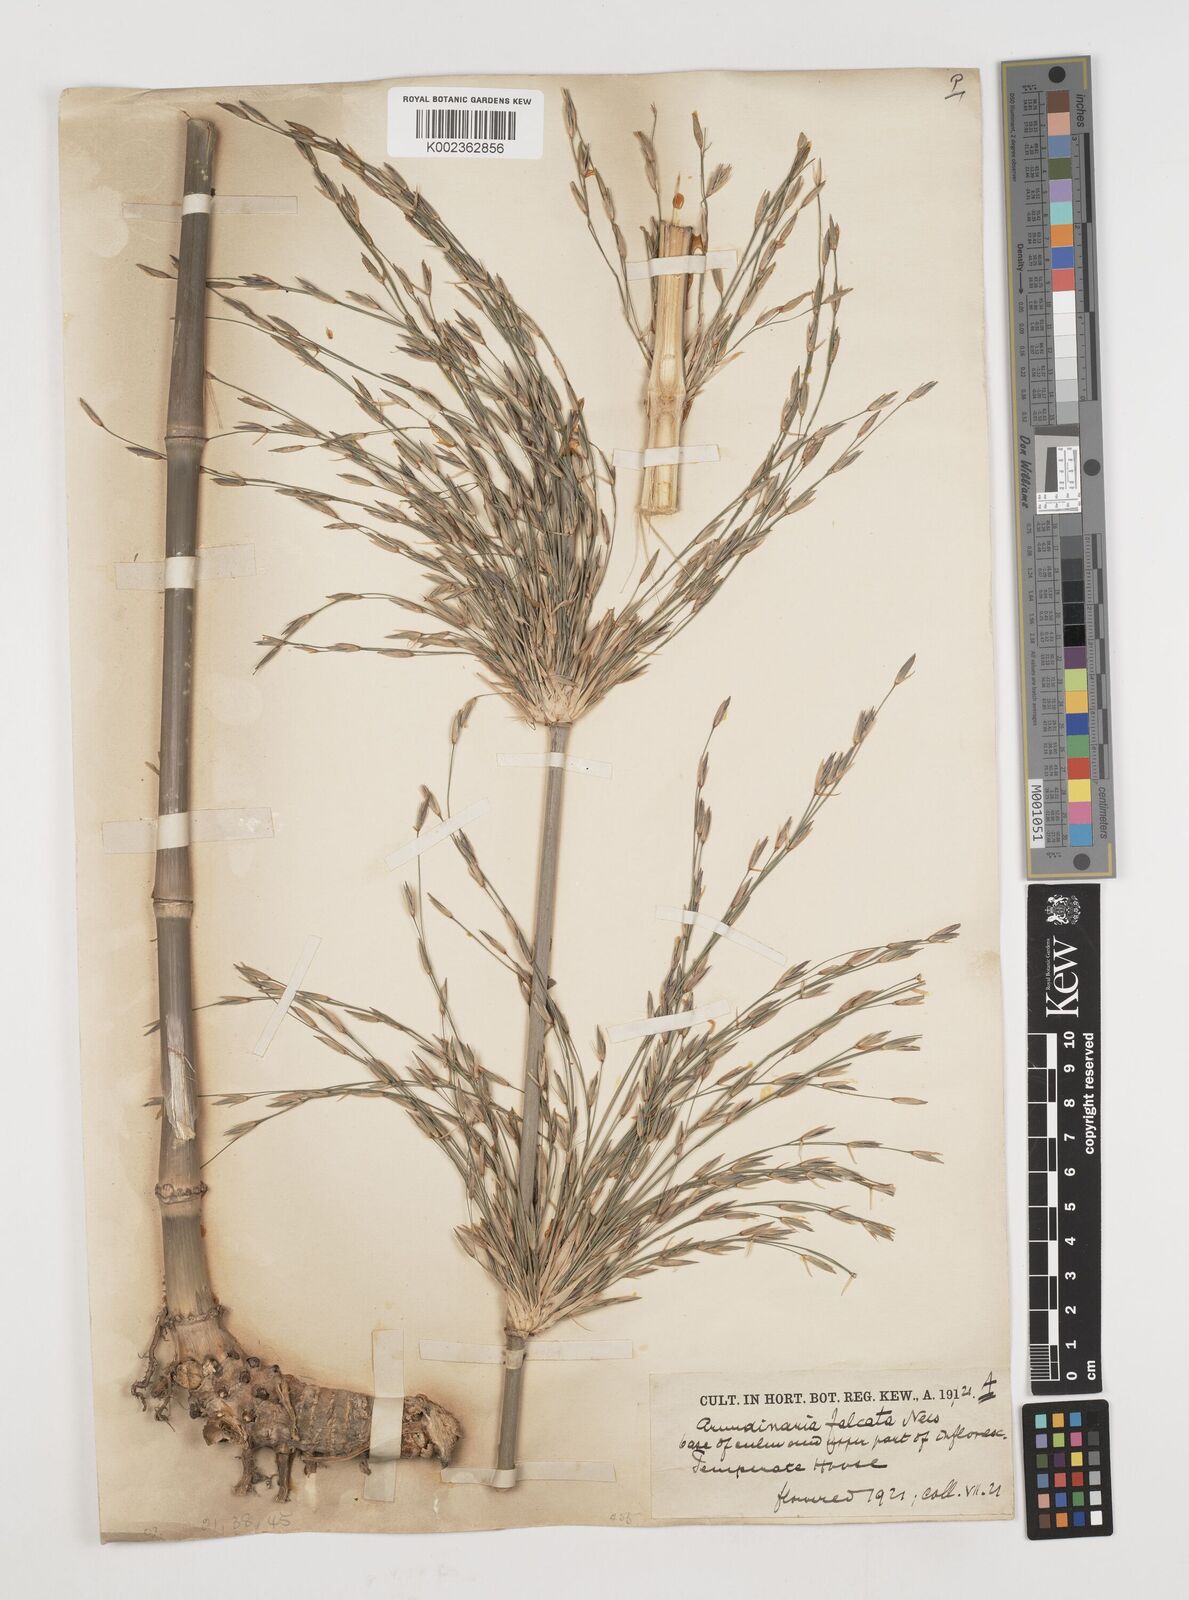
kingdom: Plantae
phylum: Tracheophyta
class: Liliopsida
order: Poales
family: Poaceae
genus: Drepanostachyum
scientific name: Drepanostachyum falcatum
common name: Himalayan bamboo
